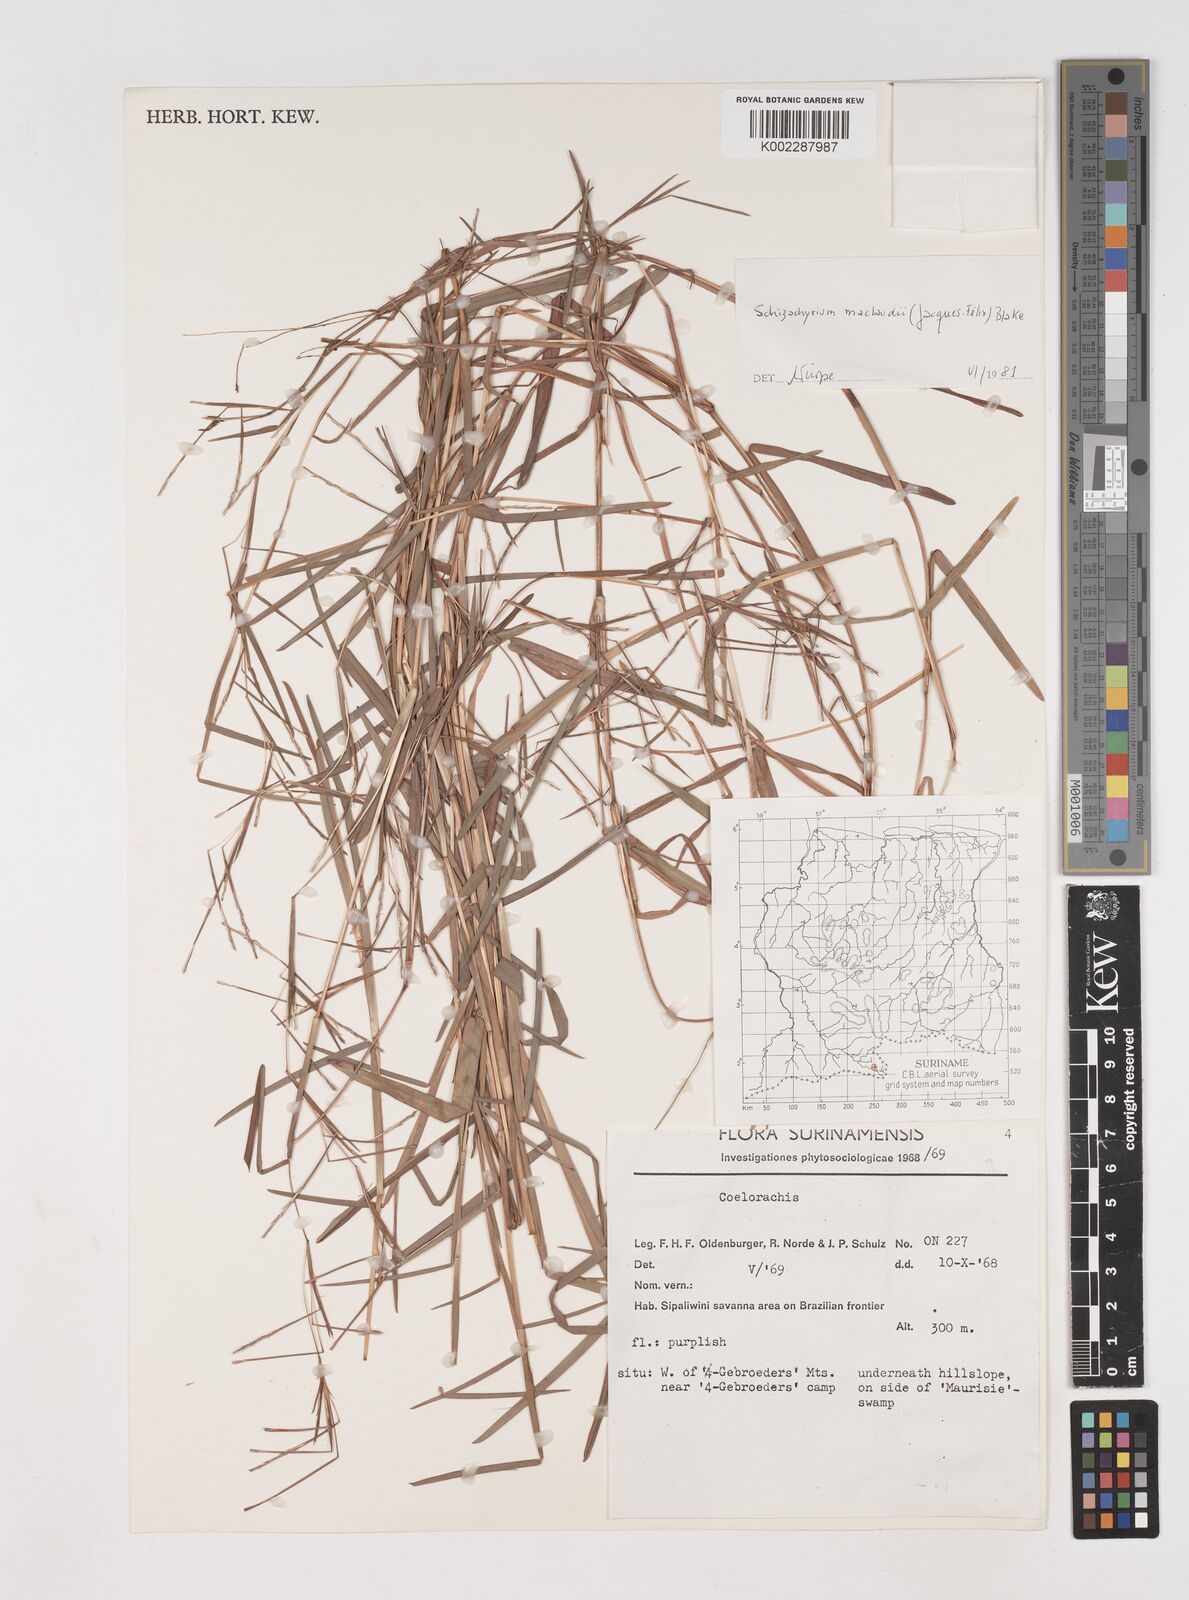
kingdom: Plantae
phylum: Tracheophyta
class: Liliopsida
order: Poales
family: Poaceae
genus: Schizachyrium
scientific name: Schizachyrium maclaudii
